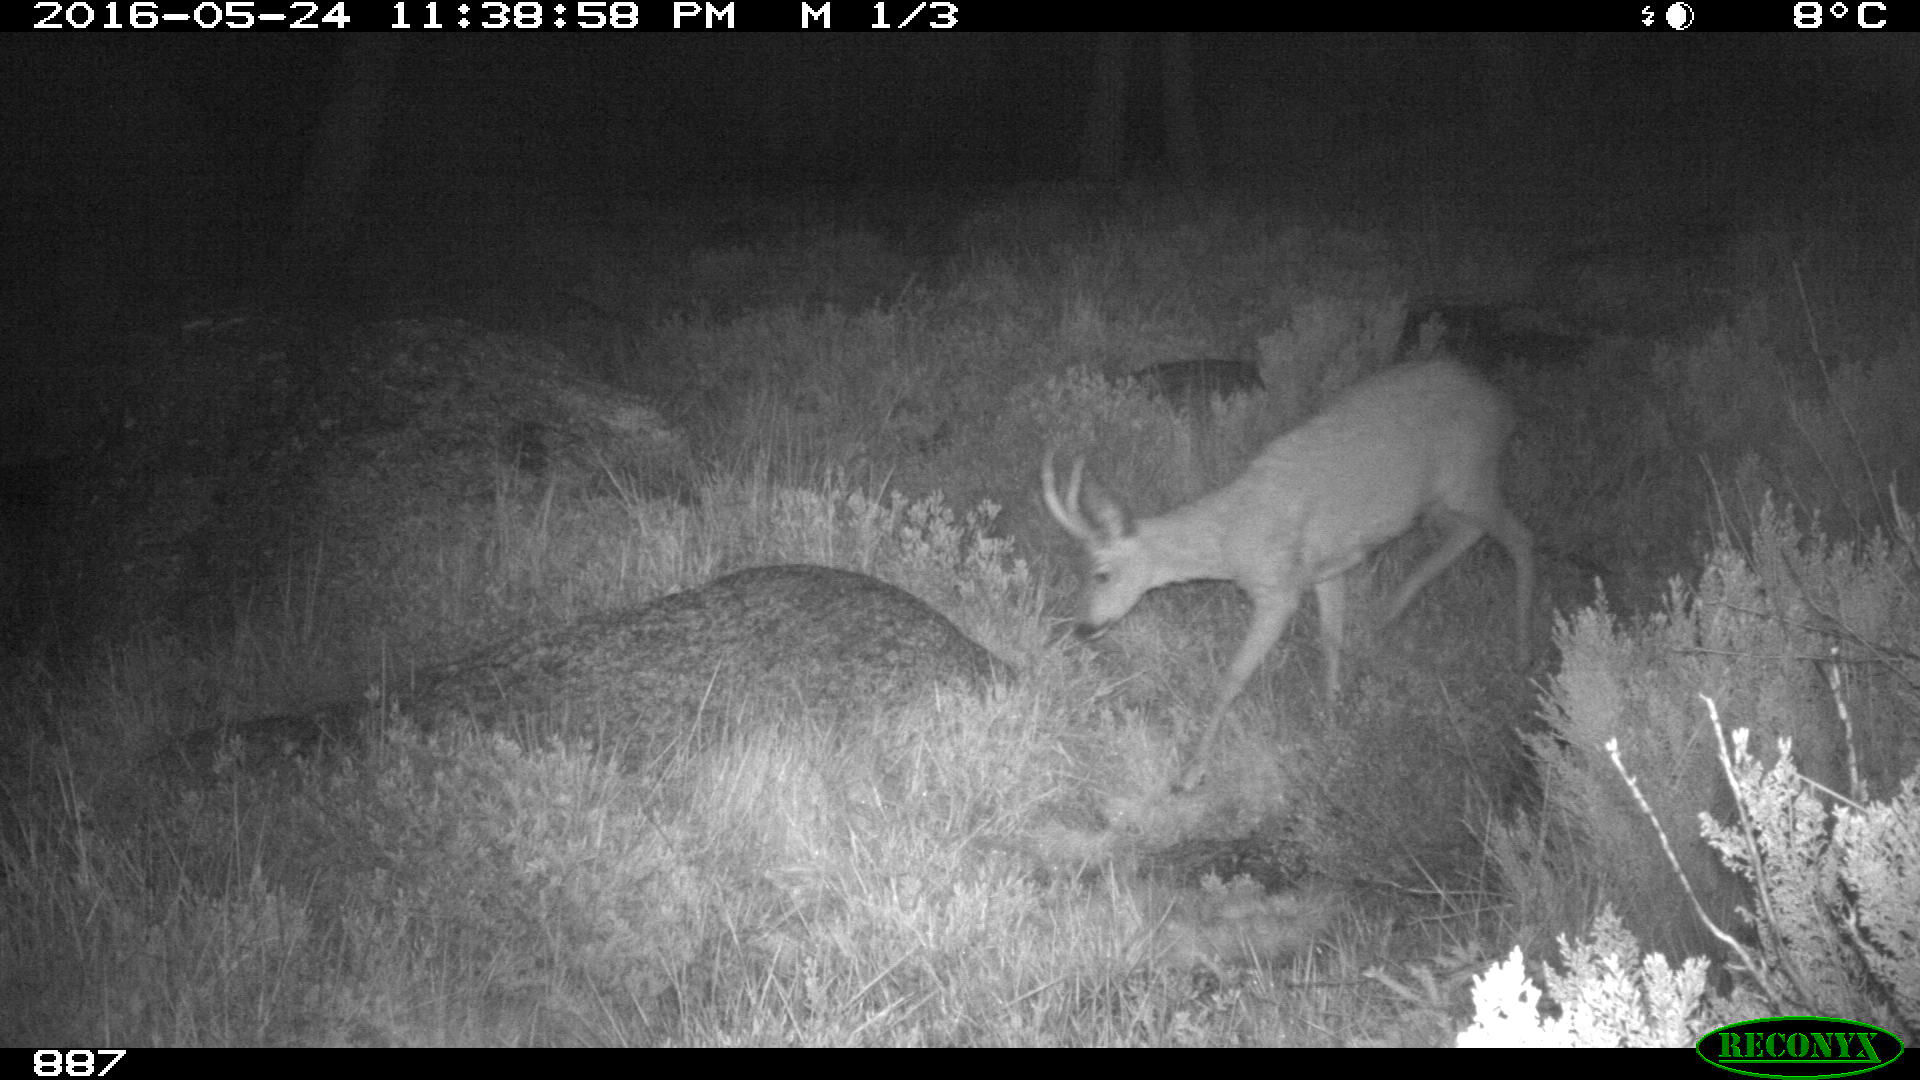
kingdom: Animalia
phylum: Chordata
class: Mammalia
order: Artiodactyla
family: Cervidae
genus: Capreolus
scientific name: Capreolus capreolus
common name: Western roe deer
